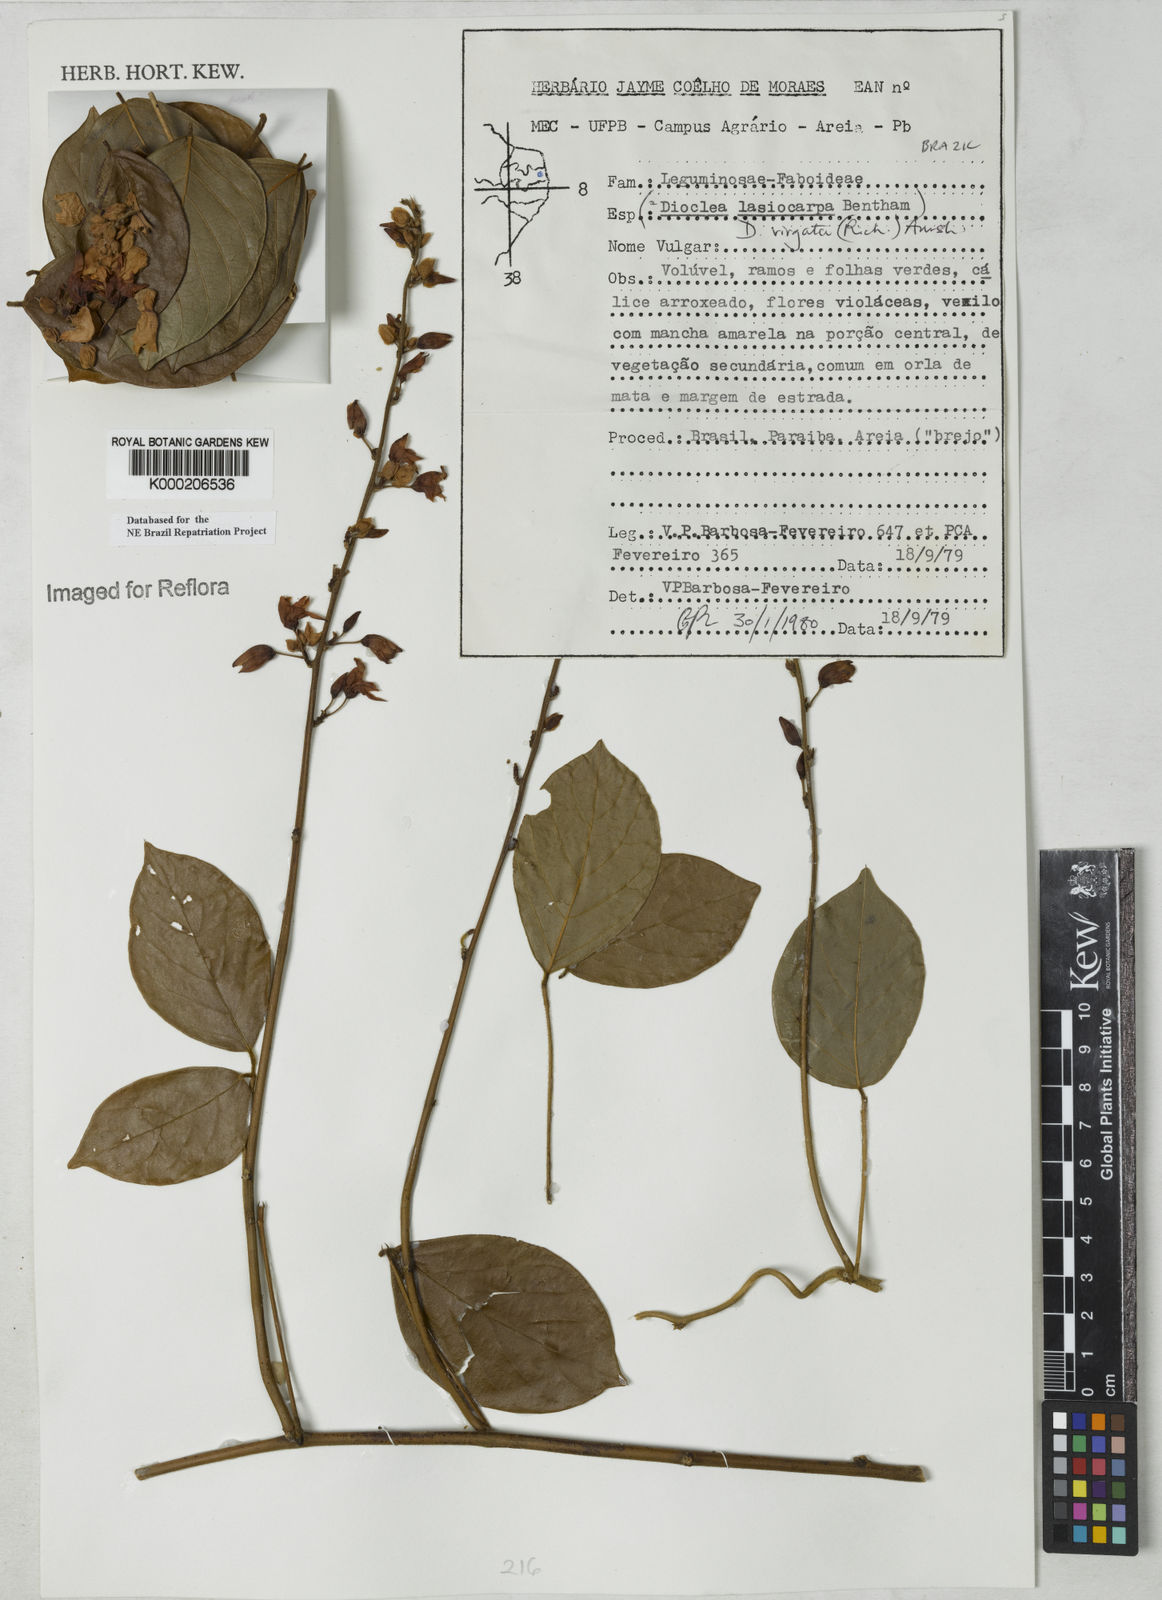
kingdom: Plantae
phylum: Tracheophyta
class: Magnoliopsida
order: Fabales
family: Fabaceae
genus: Dioclea
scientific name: Dioclea virgata
